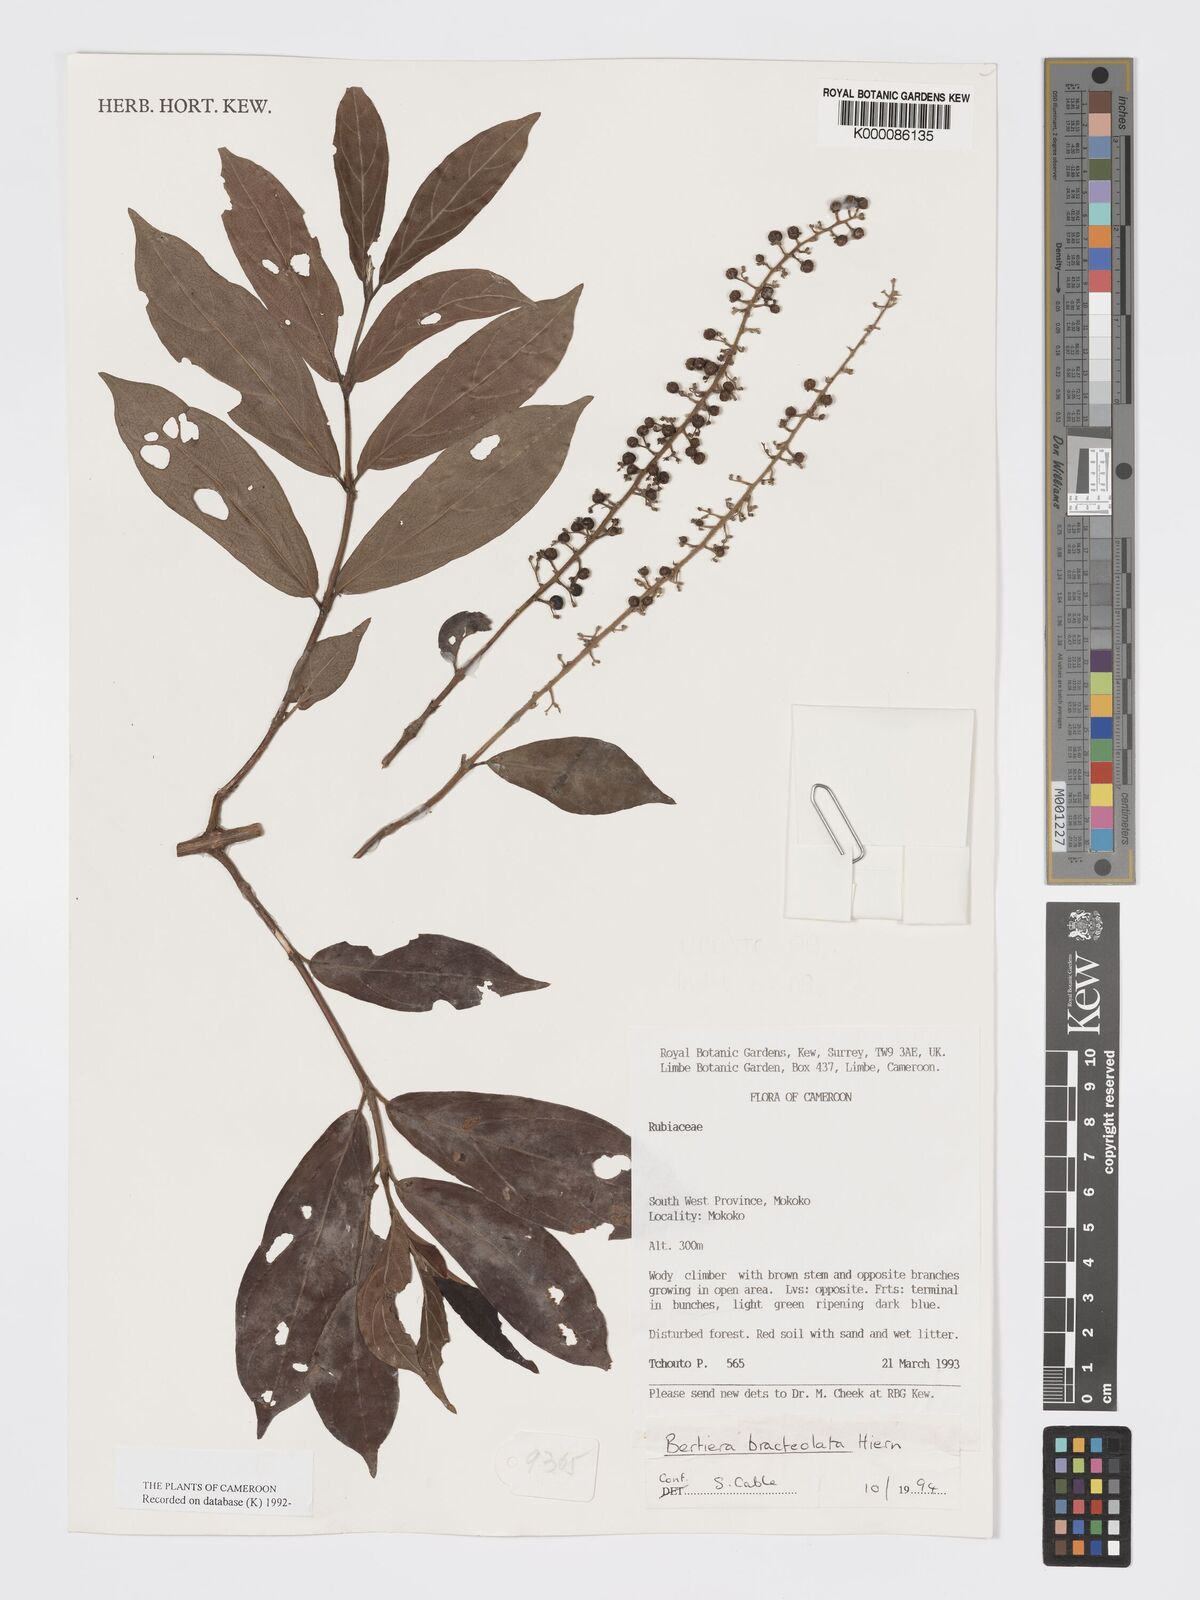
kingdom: Plantae
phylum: Tracheophyta
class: Magnoliopsida
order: Gentianales
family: Rubiaceae
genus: Bertiera
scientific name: Bertiera bracteolata
